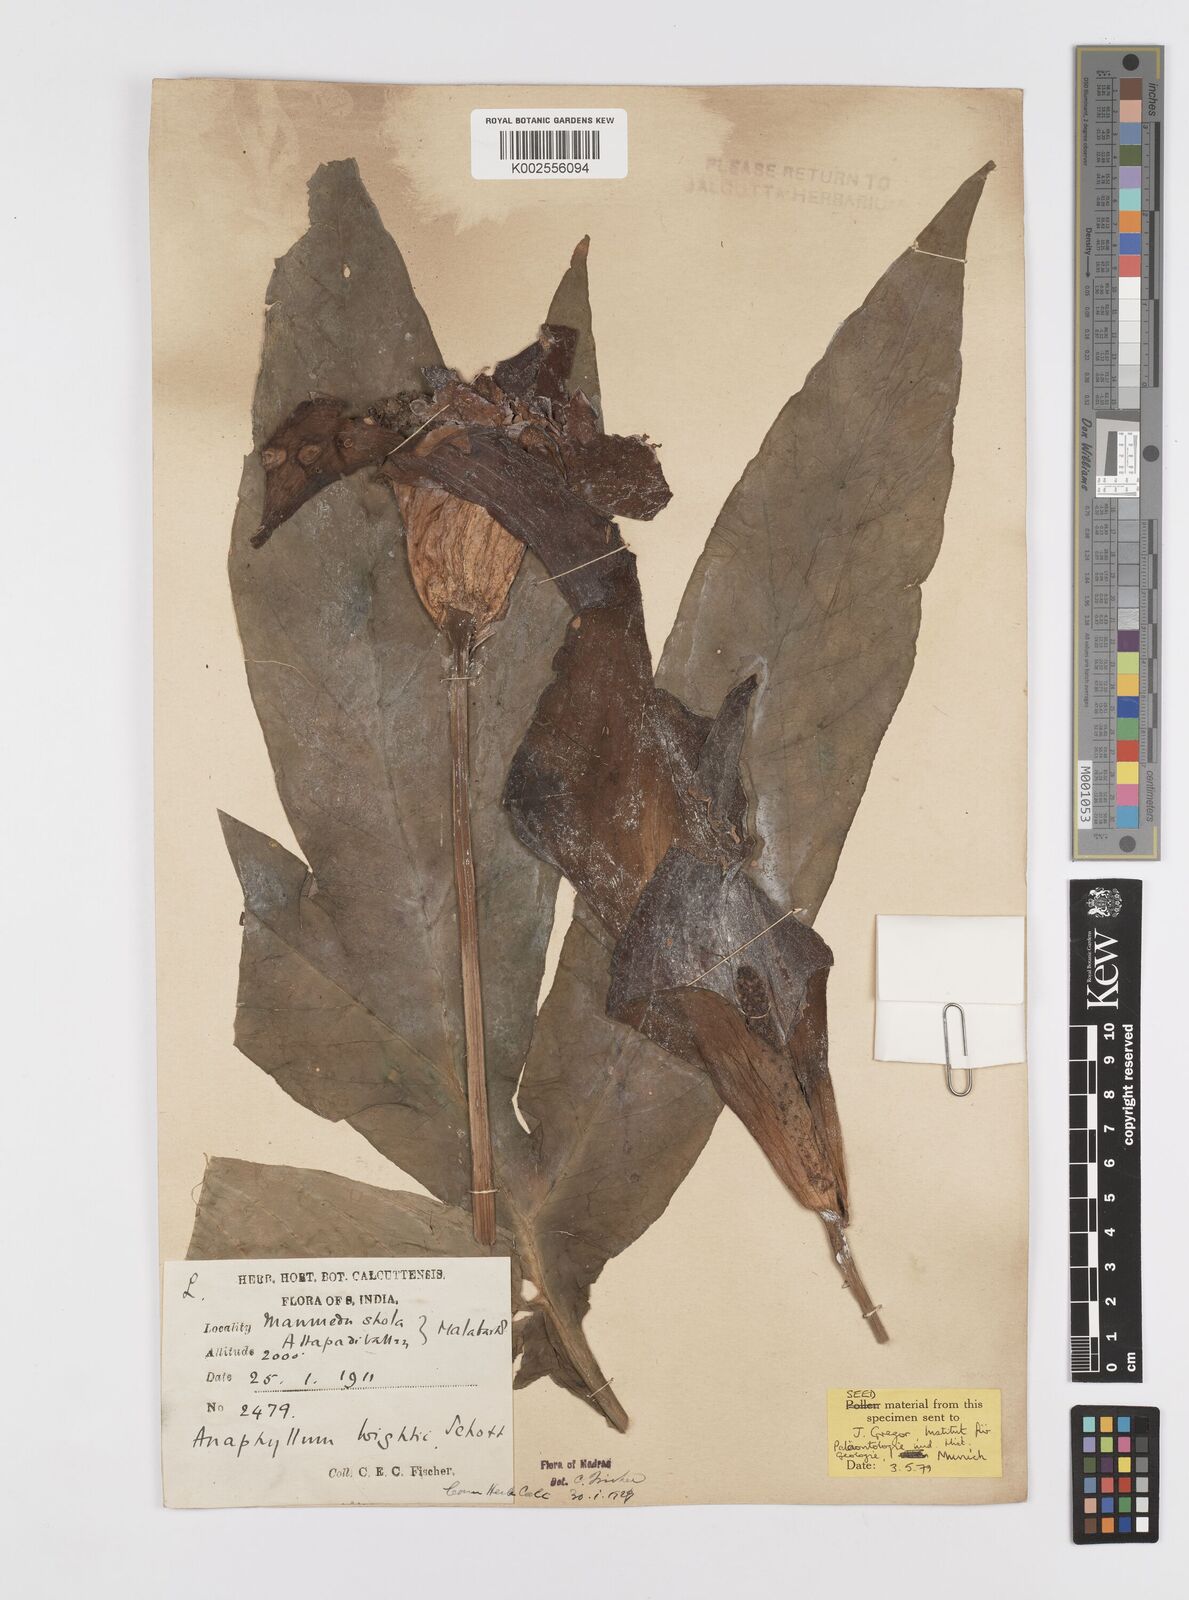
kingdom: Plantae
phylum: Tracheophyta
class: Liliopsida
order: Alismatales
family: Araceae
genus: Anaphyllum
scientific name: Anaphyllum wightii
